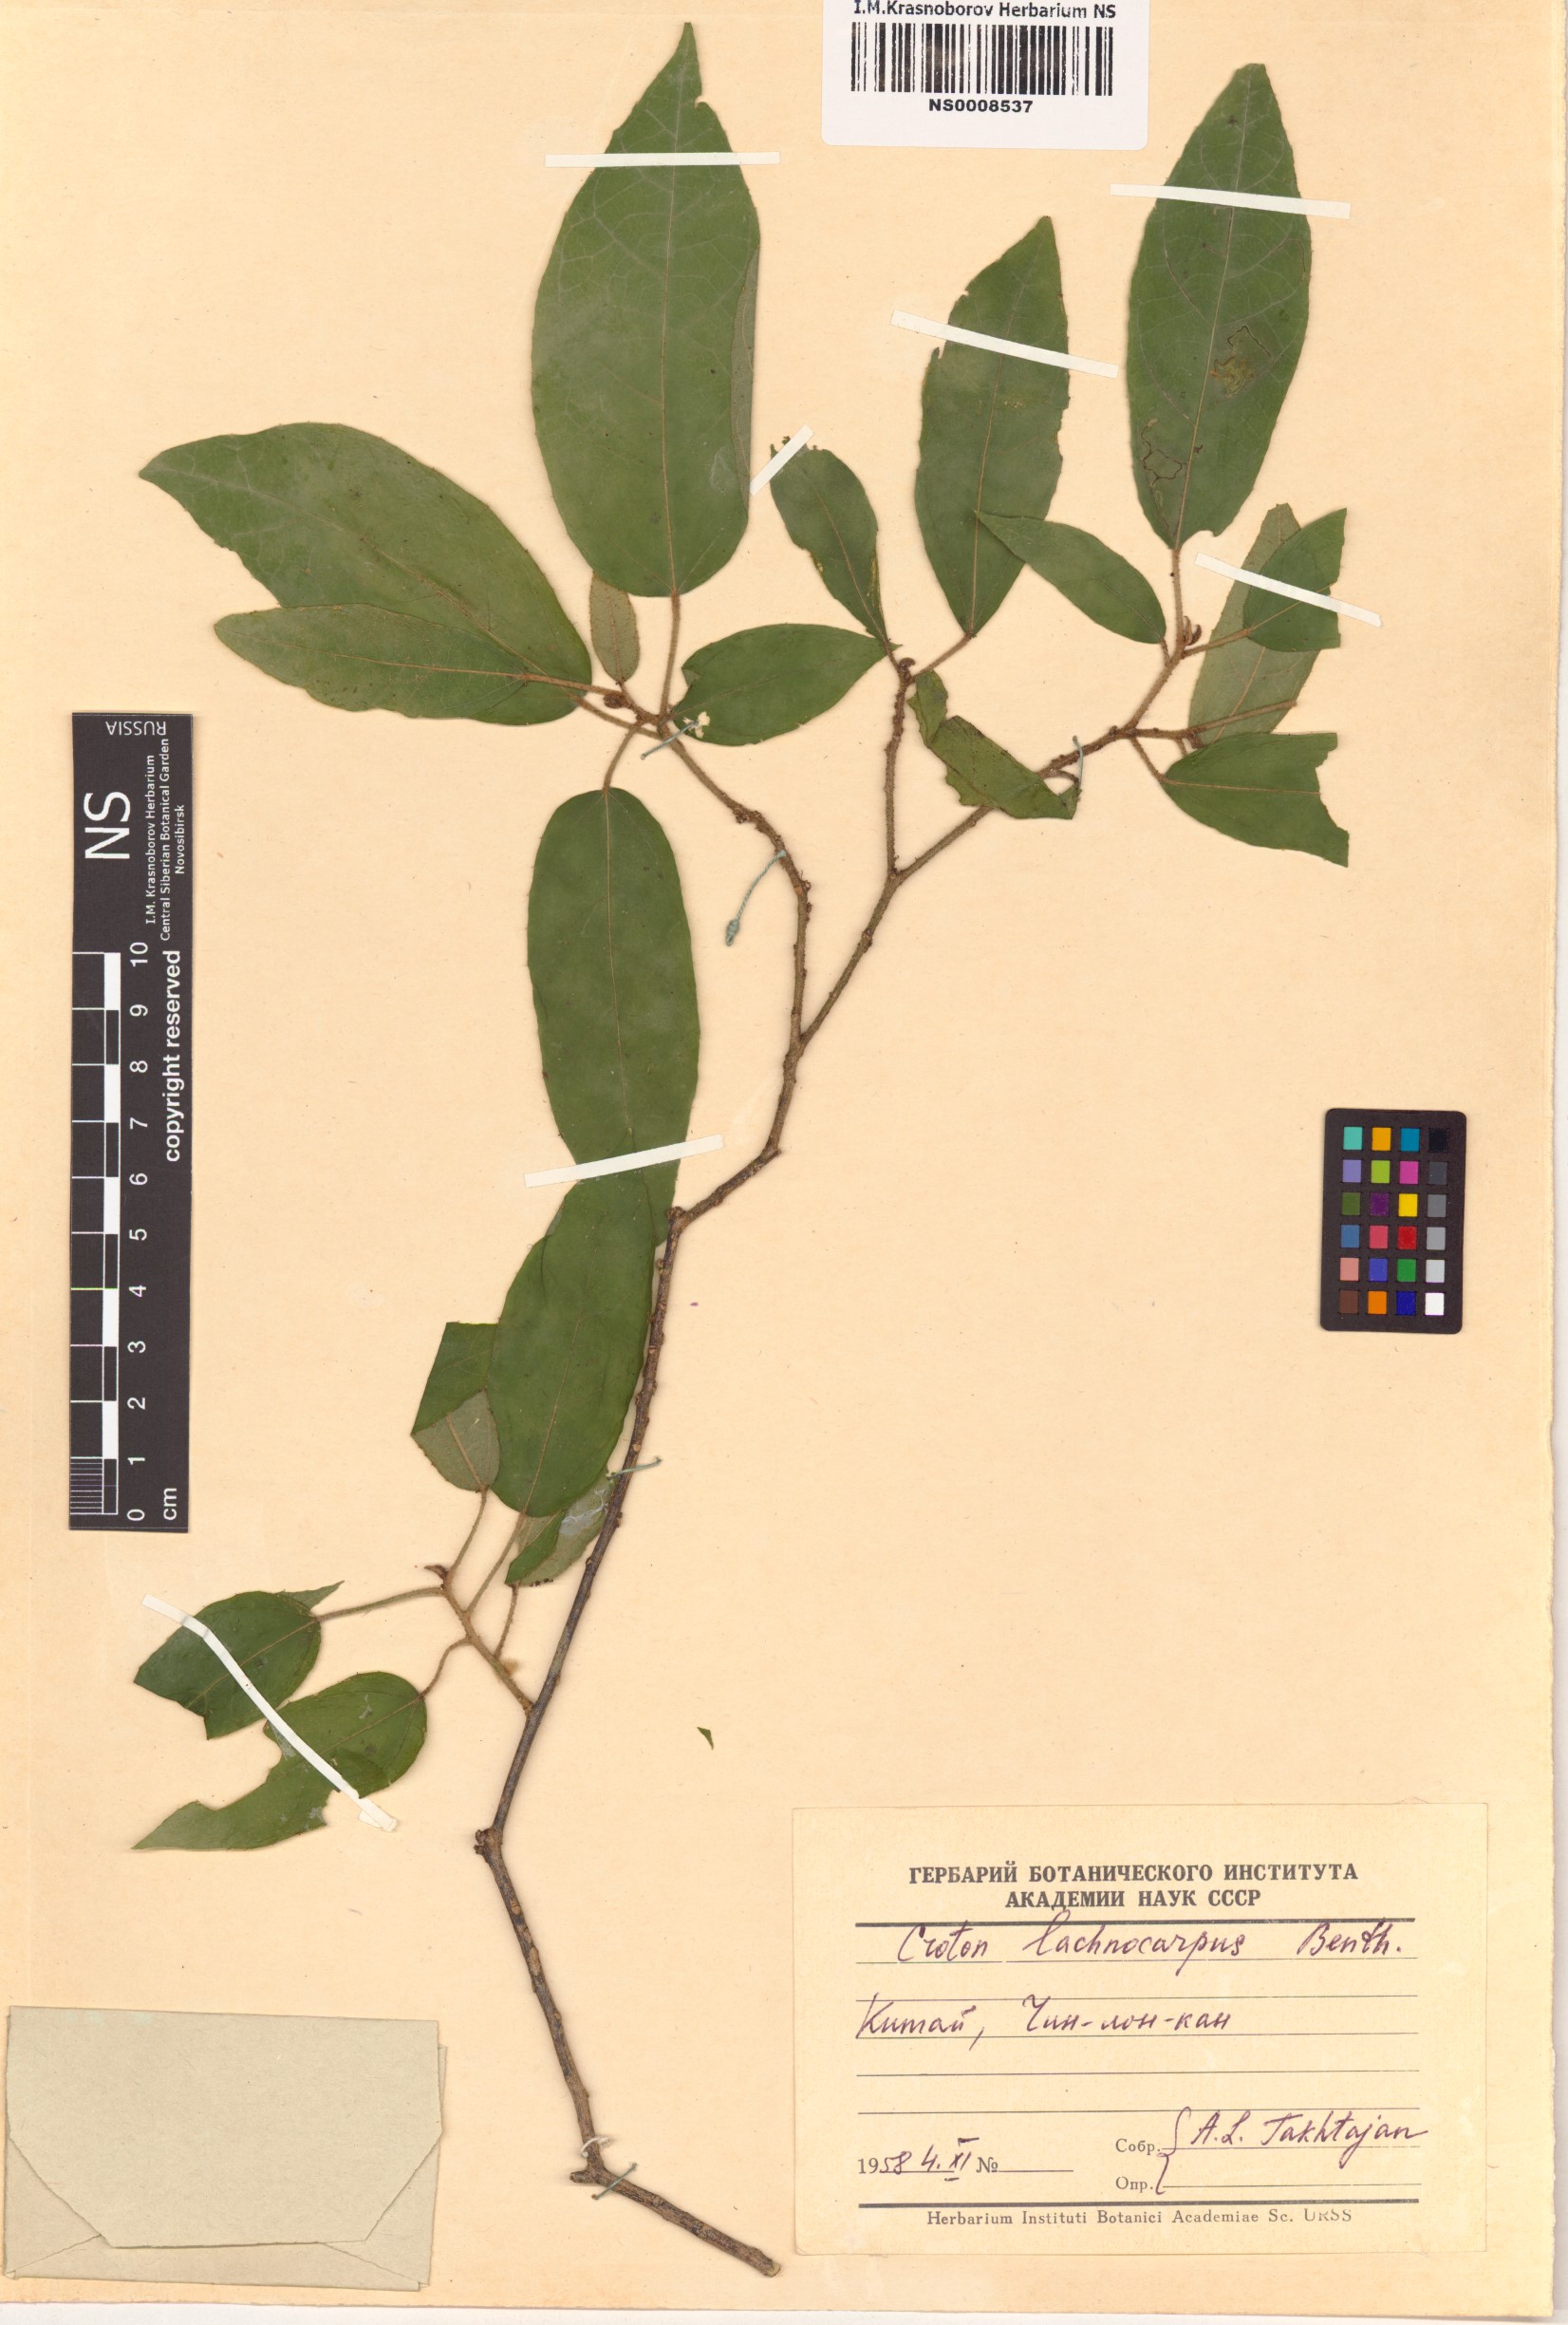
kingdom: Plantae
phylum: Tracheophyta
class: Magnoliopsida
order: Malpighiales
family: Euphorbiaceae
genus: Croton
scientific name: Croton lachnocarpus
